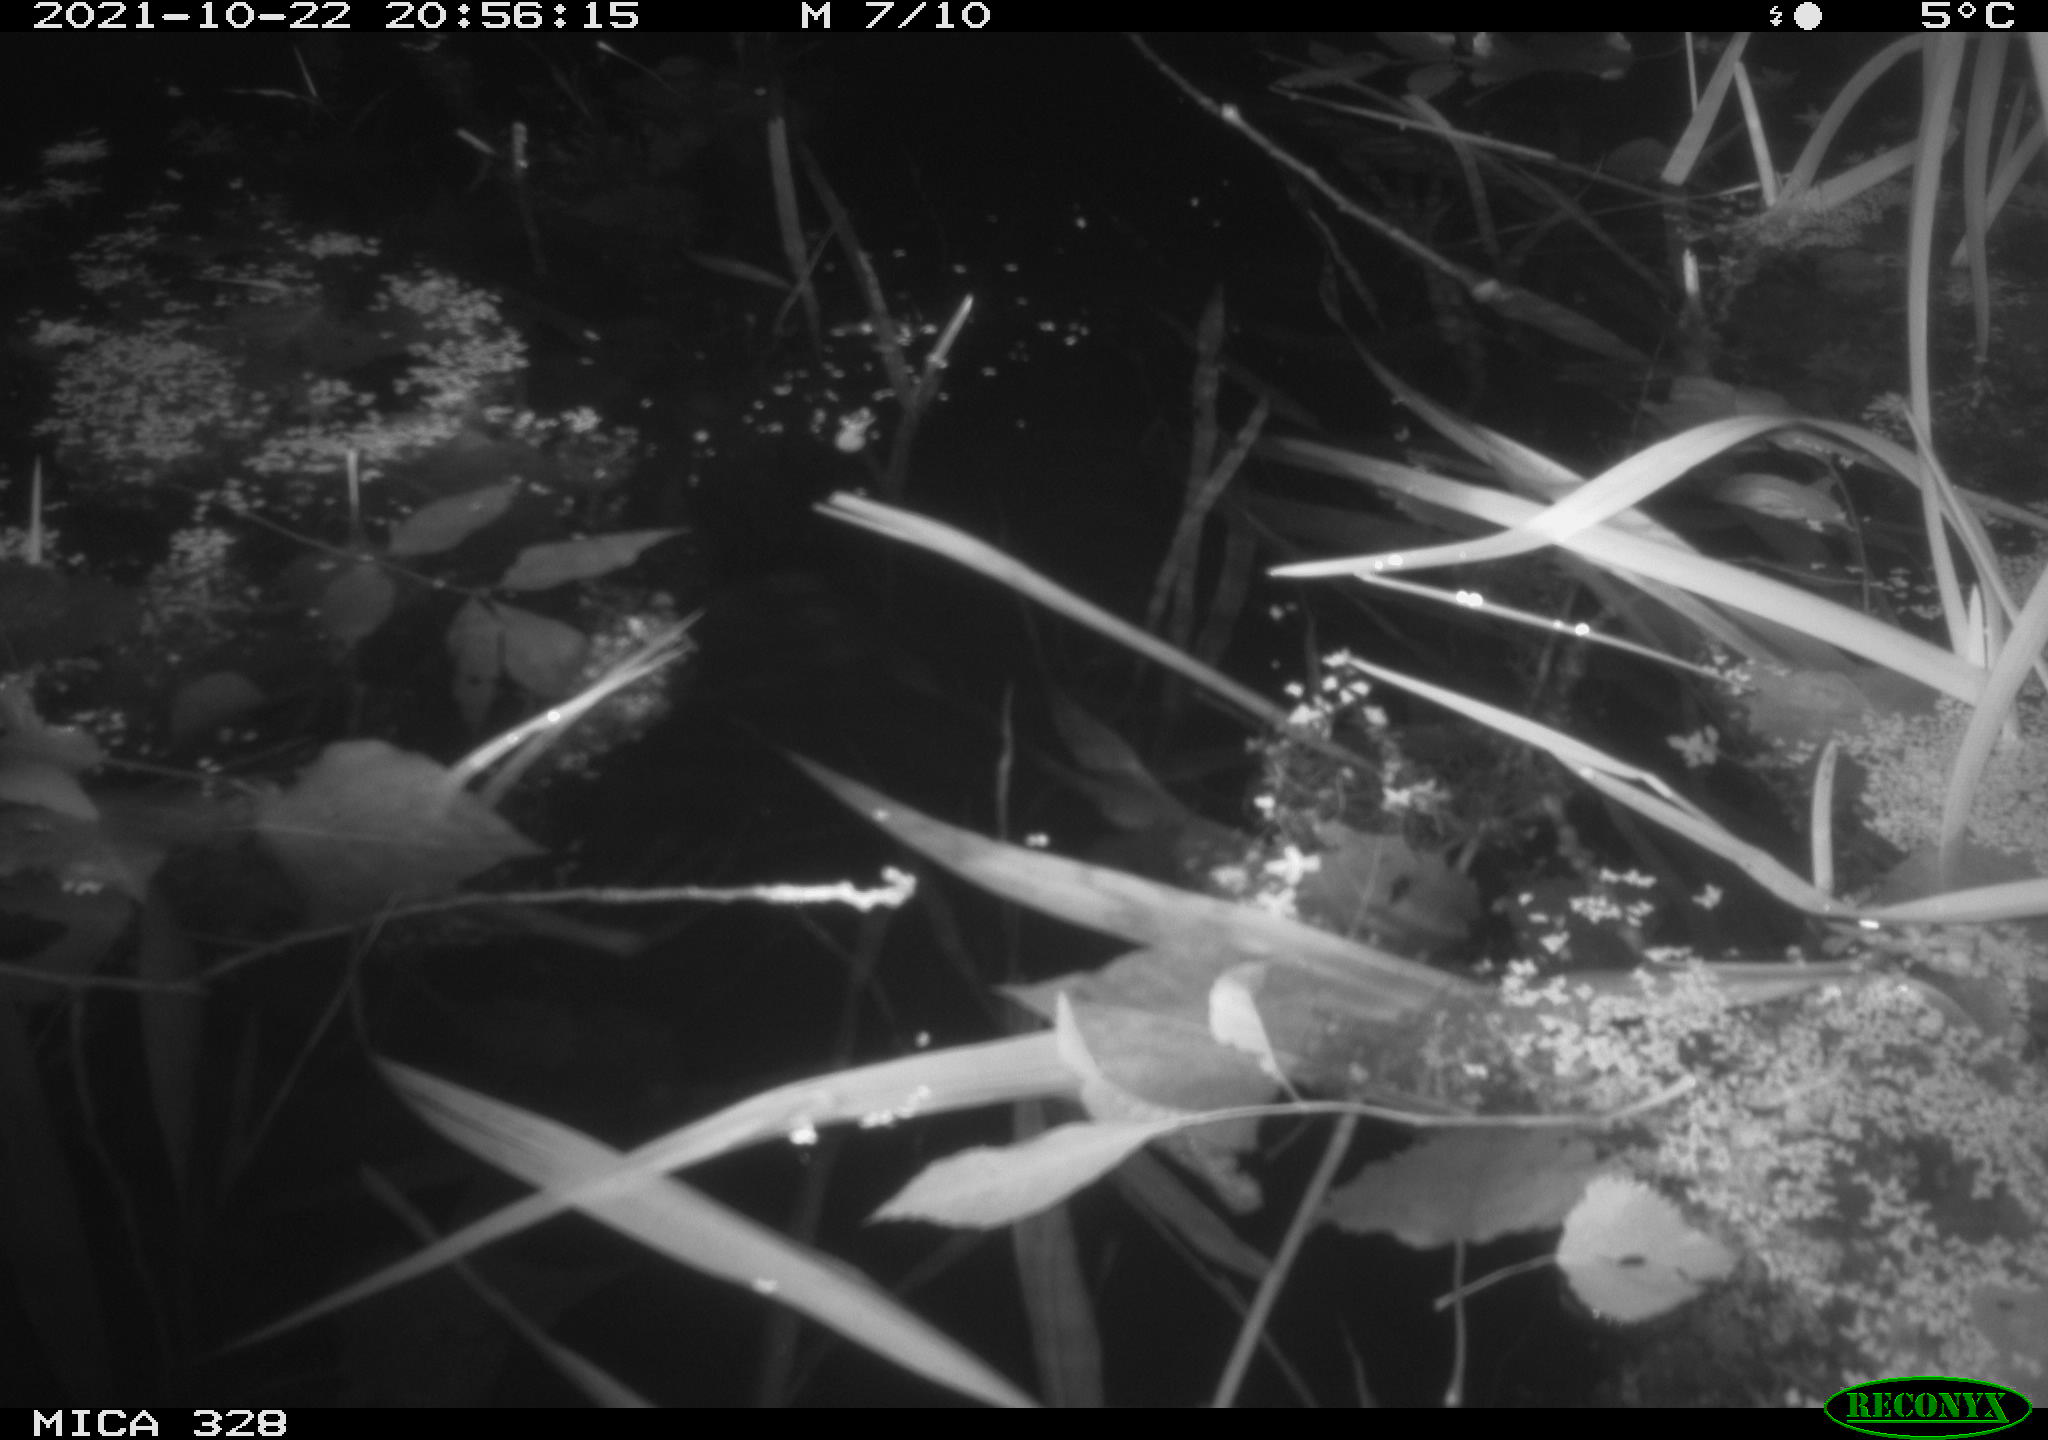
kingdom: Animalia
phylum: Chordata
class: Mammalia
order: Rodentia
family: Muridae
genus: Rattus
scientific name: Rattus norvegicus
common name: Brown rat
